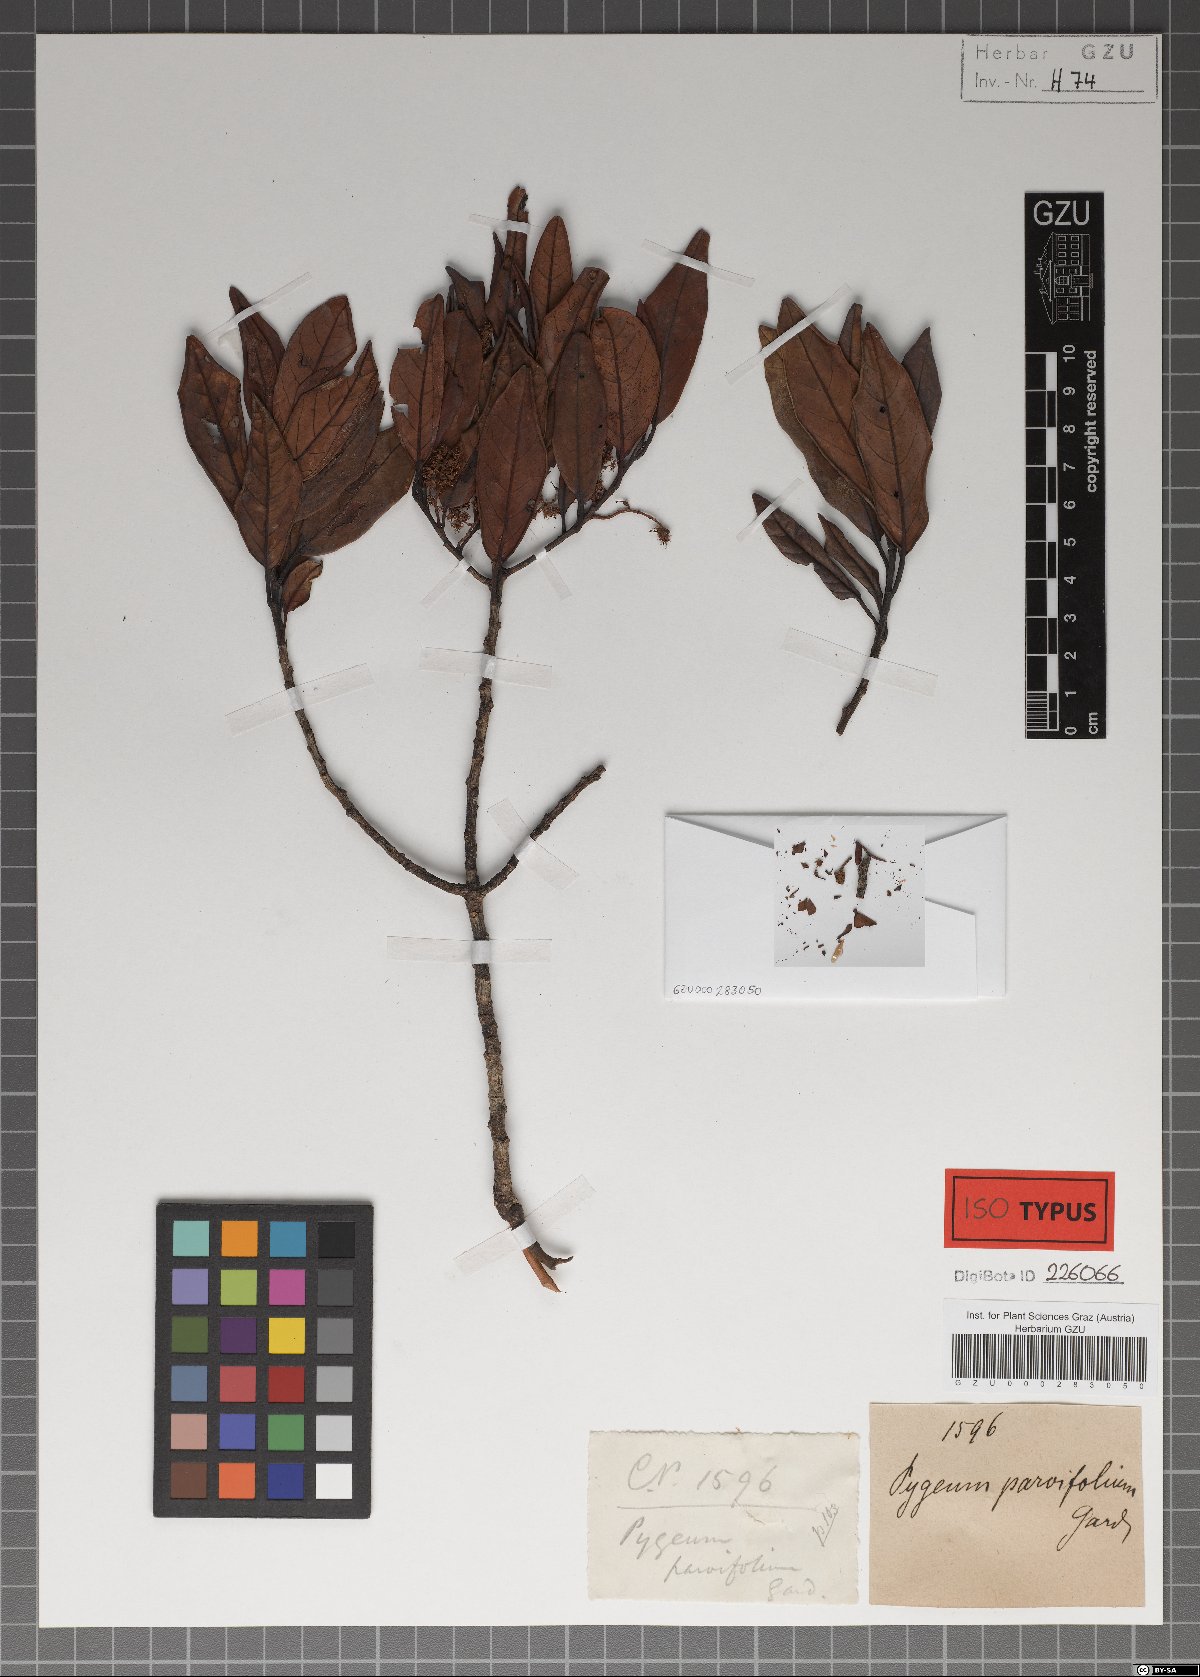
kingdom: Plantae
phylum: Tracheophyta
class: Magnoliopsida
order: Rosales
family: Rosaceae
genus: Prunus
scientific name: Prunus ceylanica
